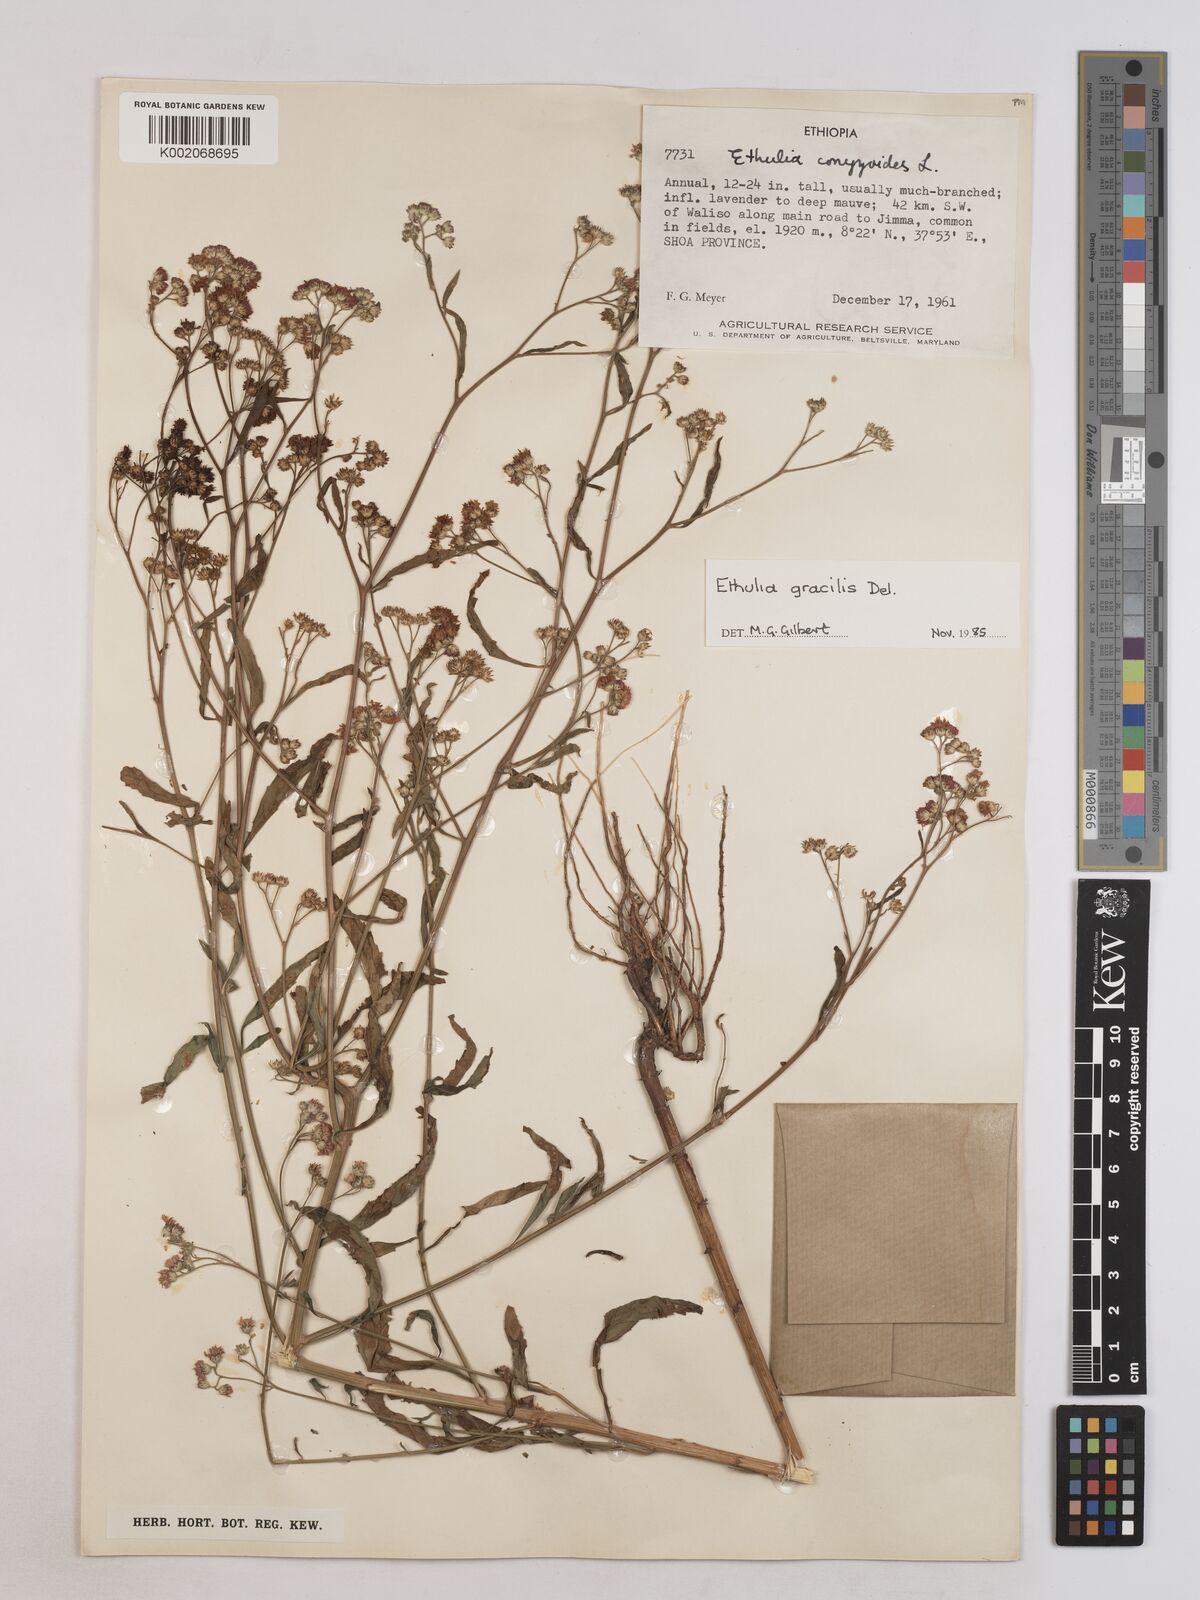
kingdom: Plantae
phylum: Tracheophyta
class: Magnoliopsida
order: Asterales
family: Asteraceae
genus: Ethulia
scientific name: Ethulia gracilis
